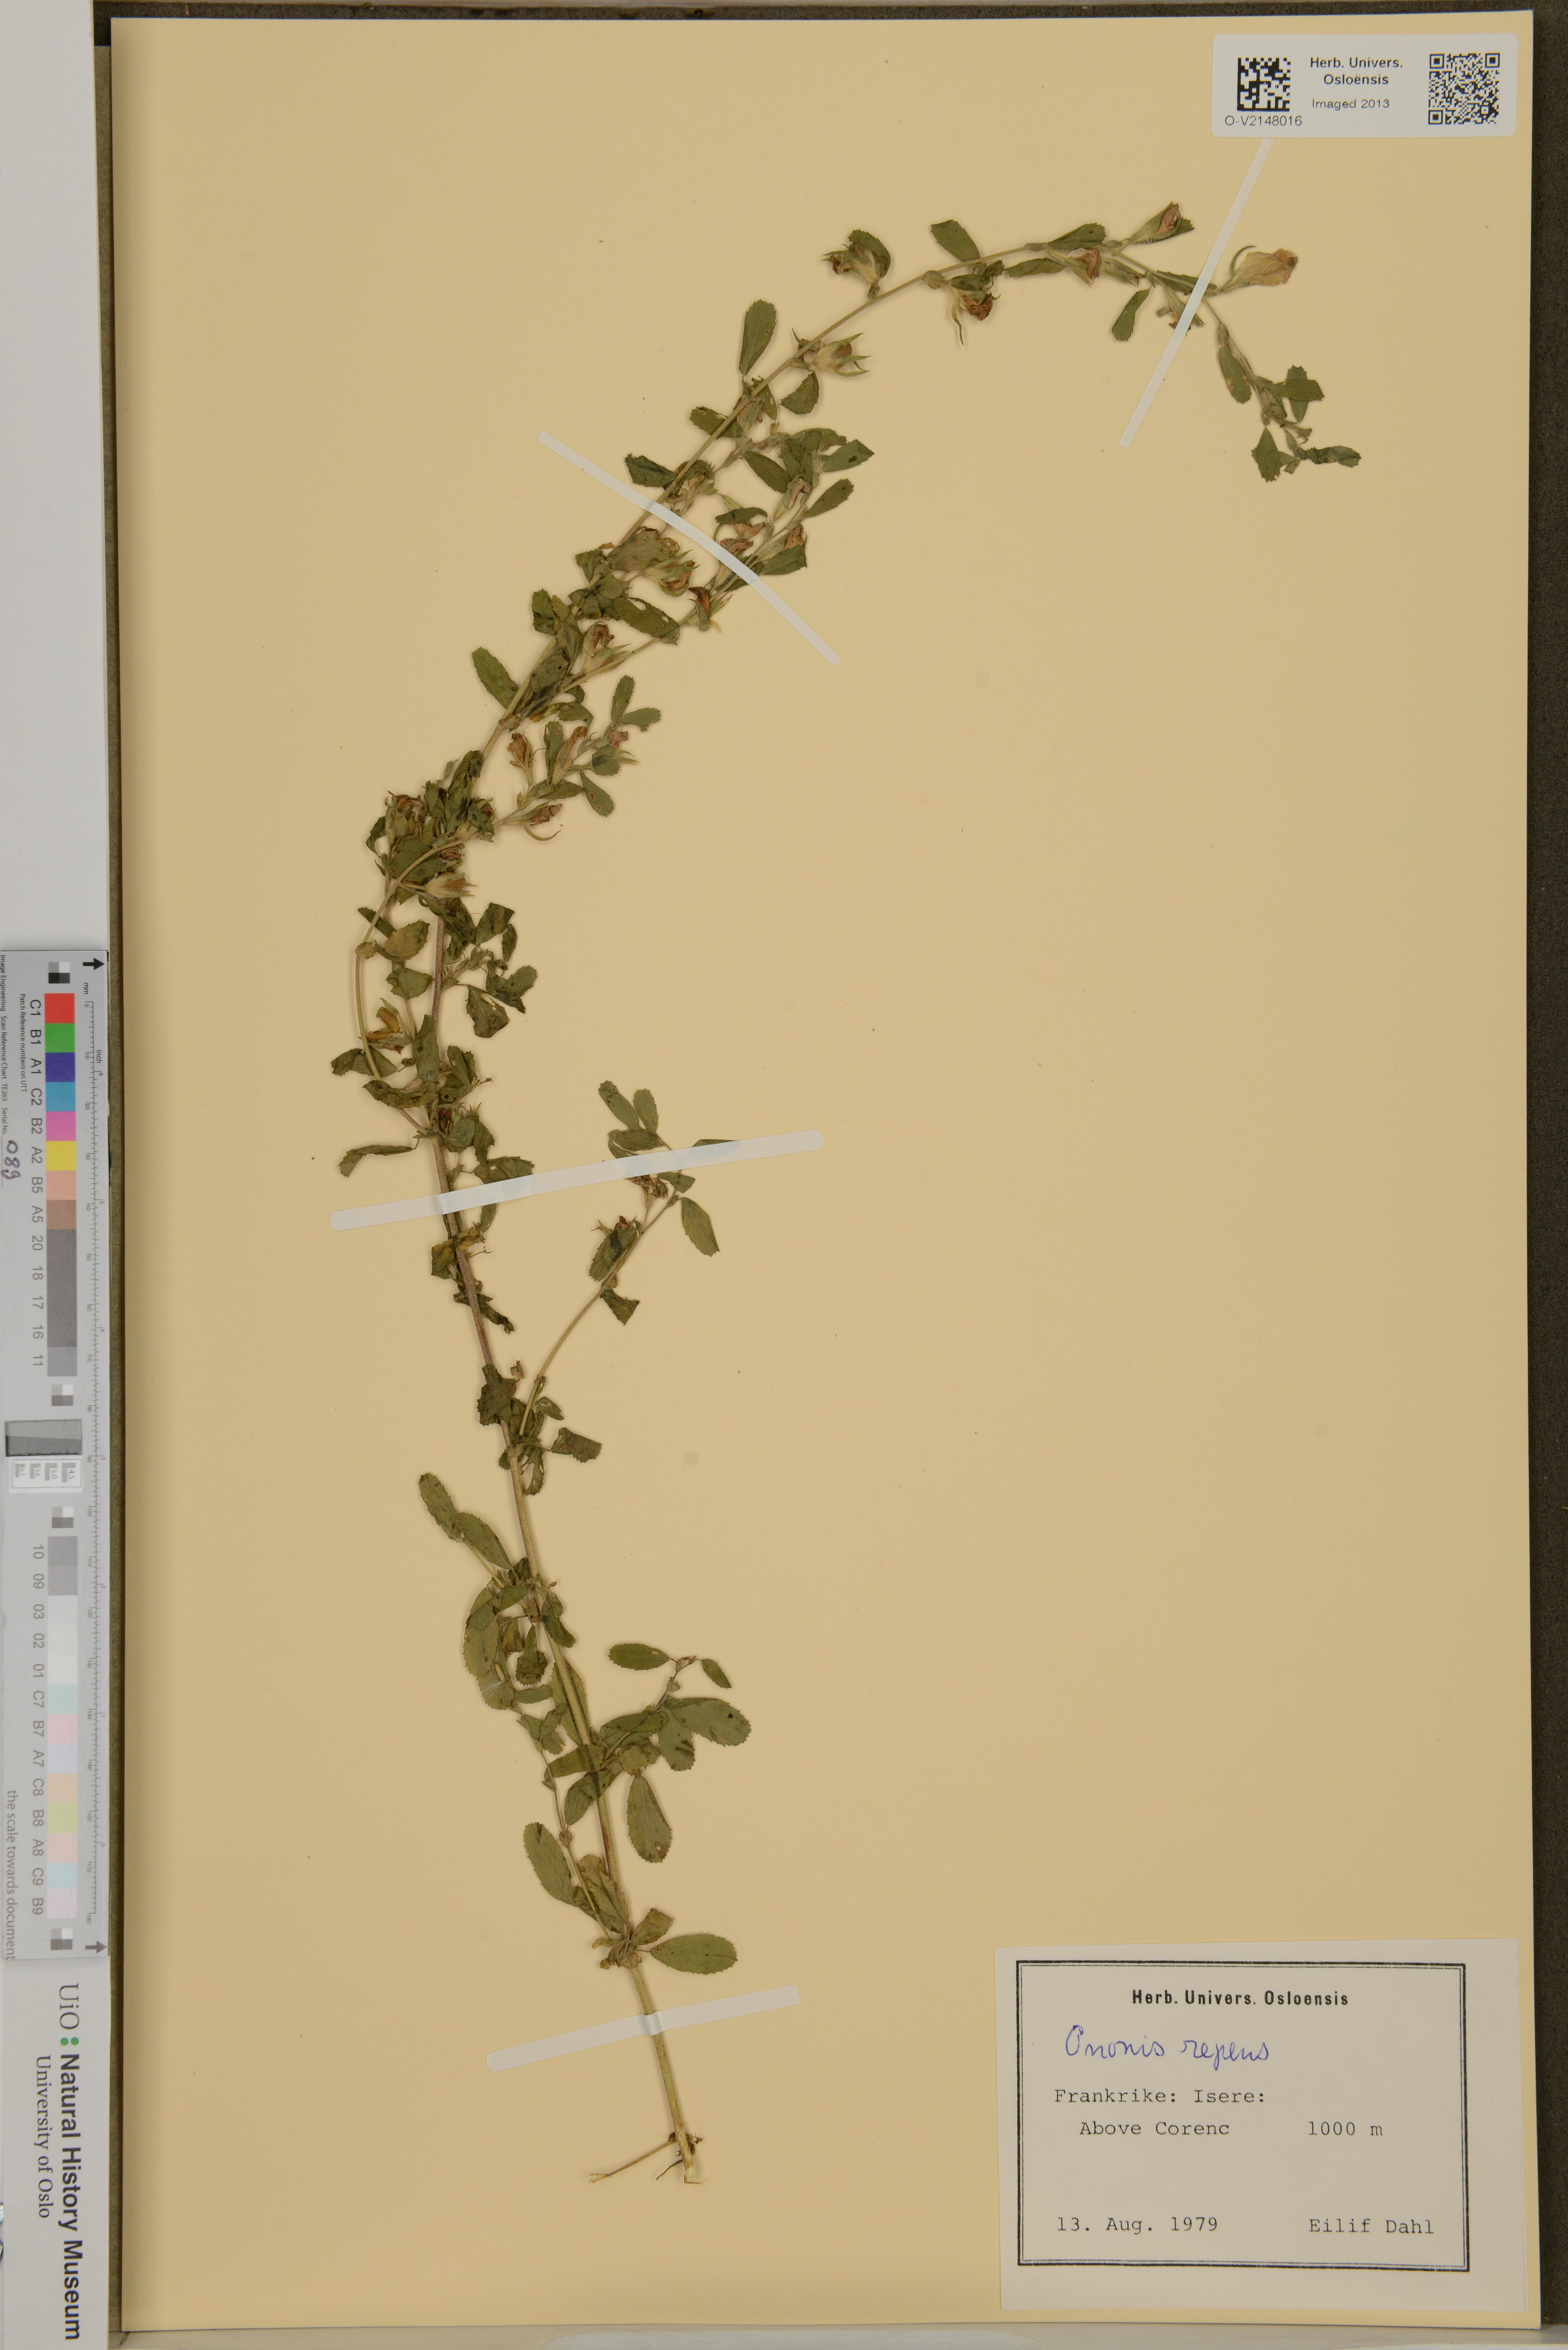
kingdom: Plantae
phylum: Tracheophyta
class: Magnoliopsida
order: Fabales
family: Fabaceae
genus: Ononis
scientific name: Ononis spinosa
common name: Spiny restharrow
